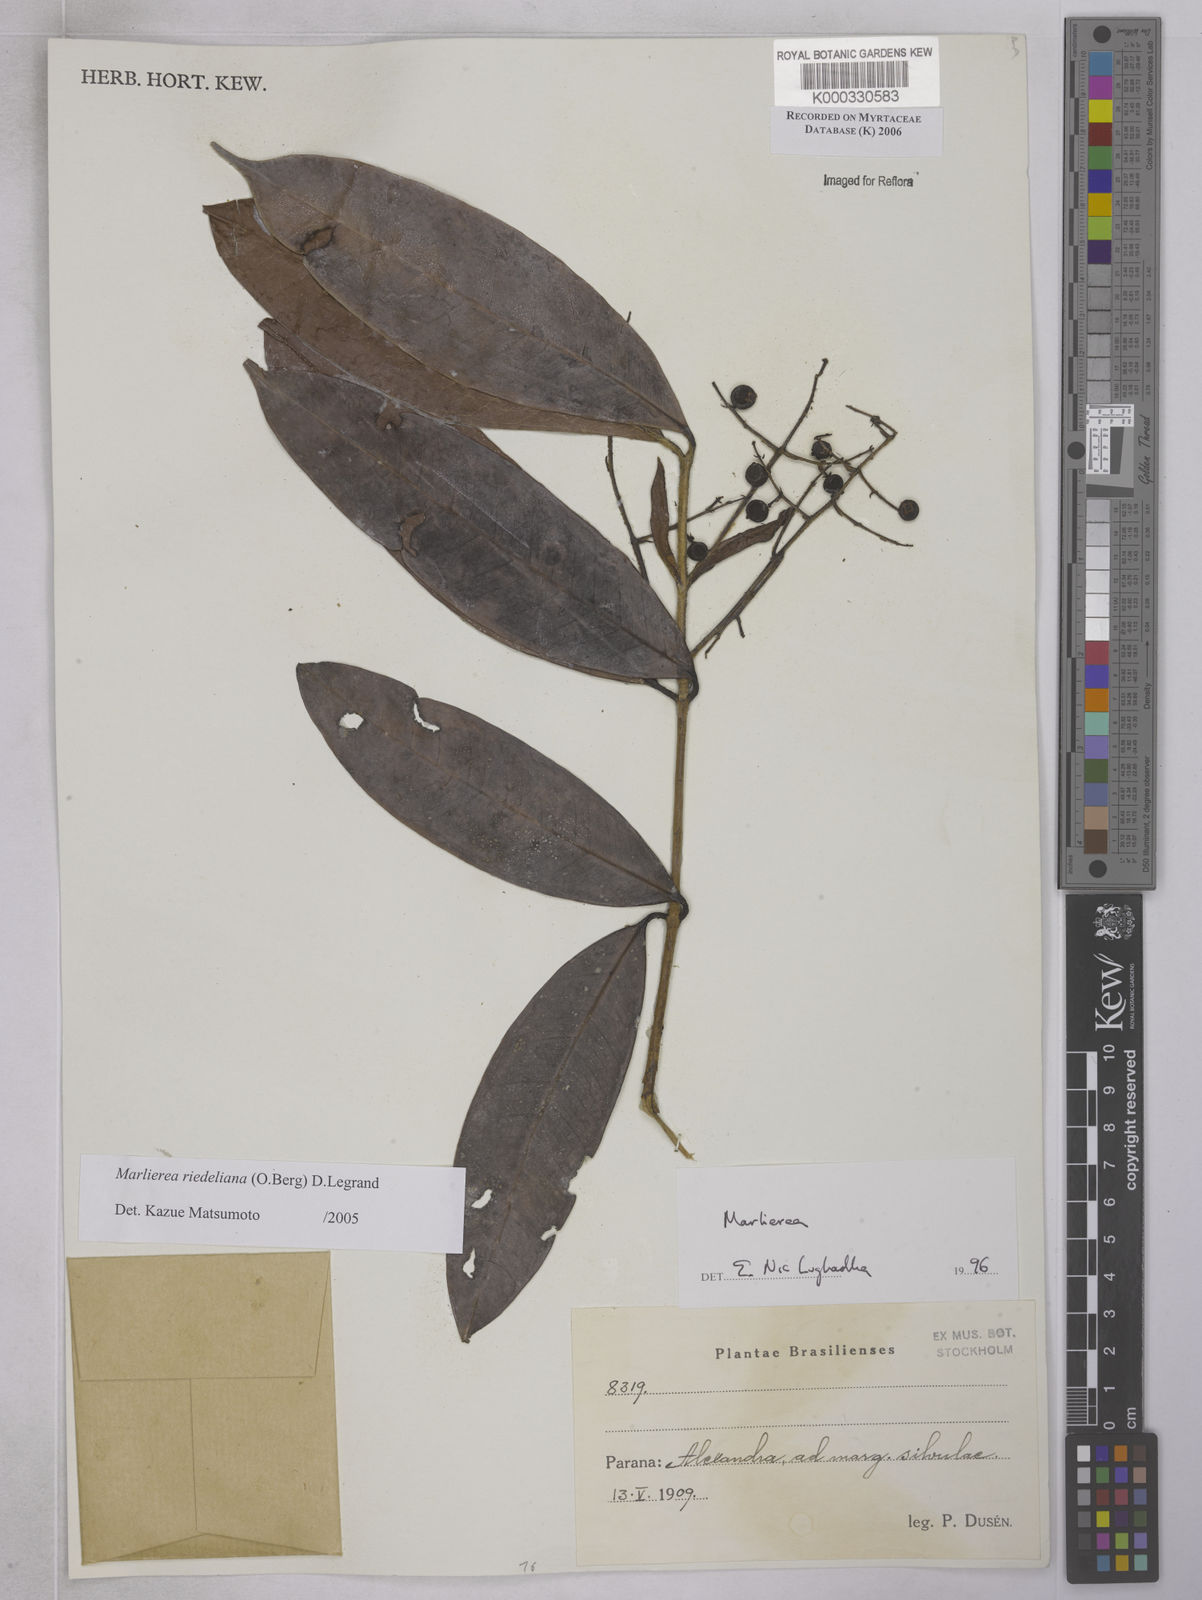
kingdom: Plantae
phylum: Tracheophyta
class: Magnoliopsida
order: Myrtales
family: Myrtaceae
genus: Myrcia
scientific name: Myrcia neoriedeliana
